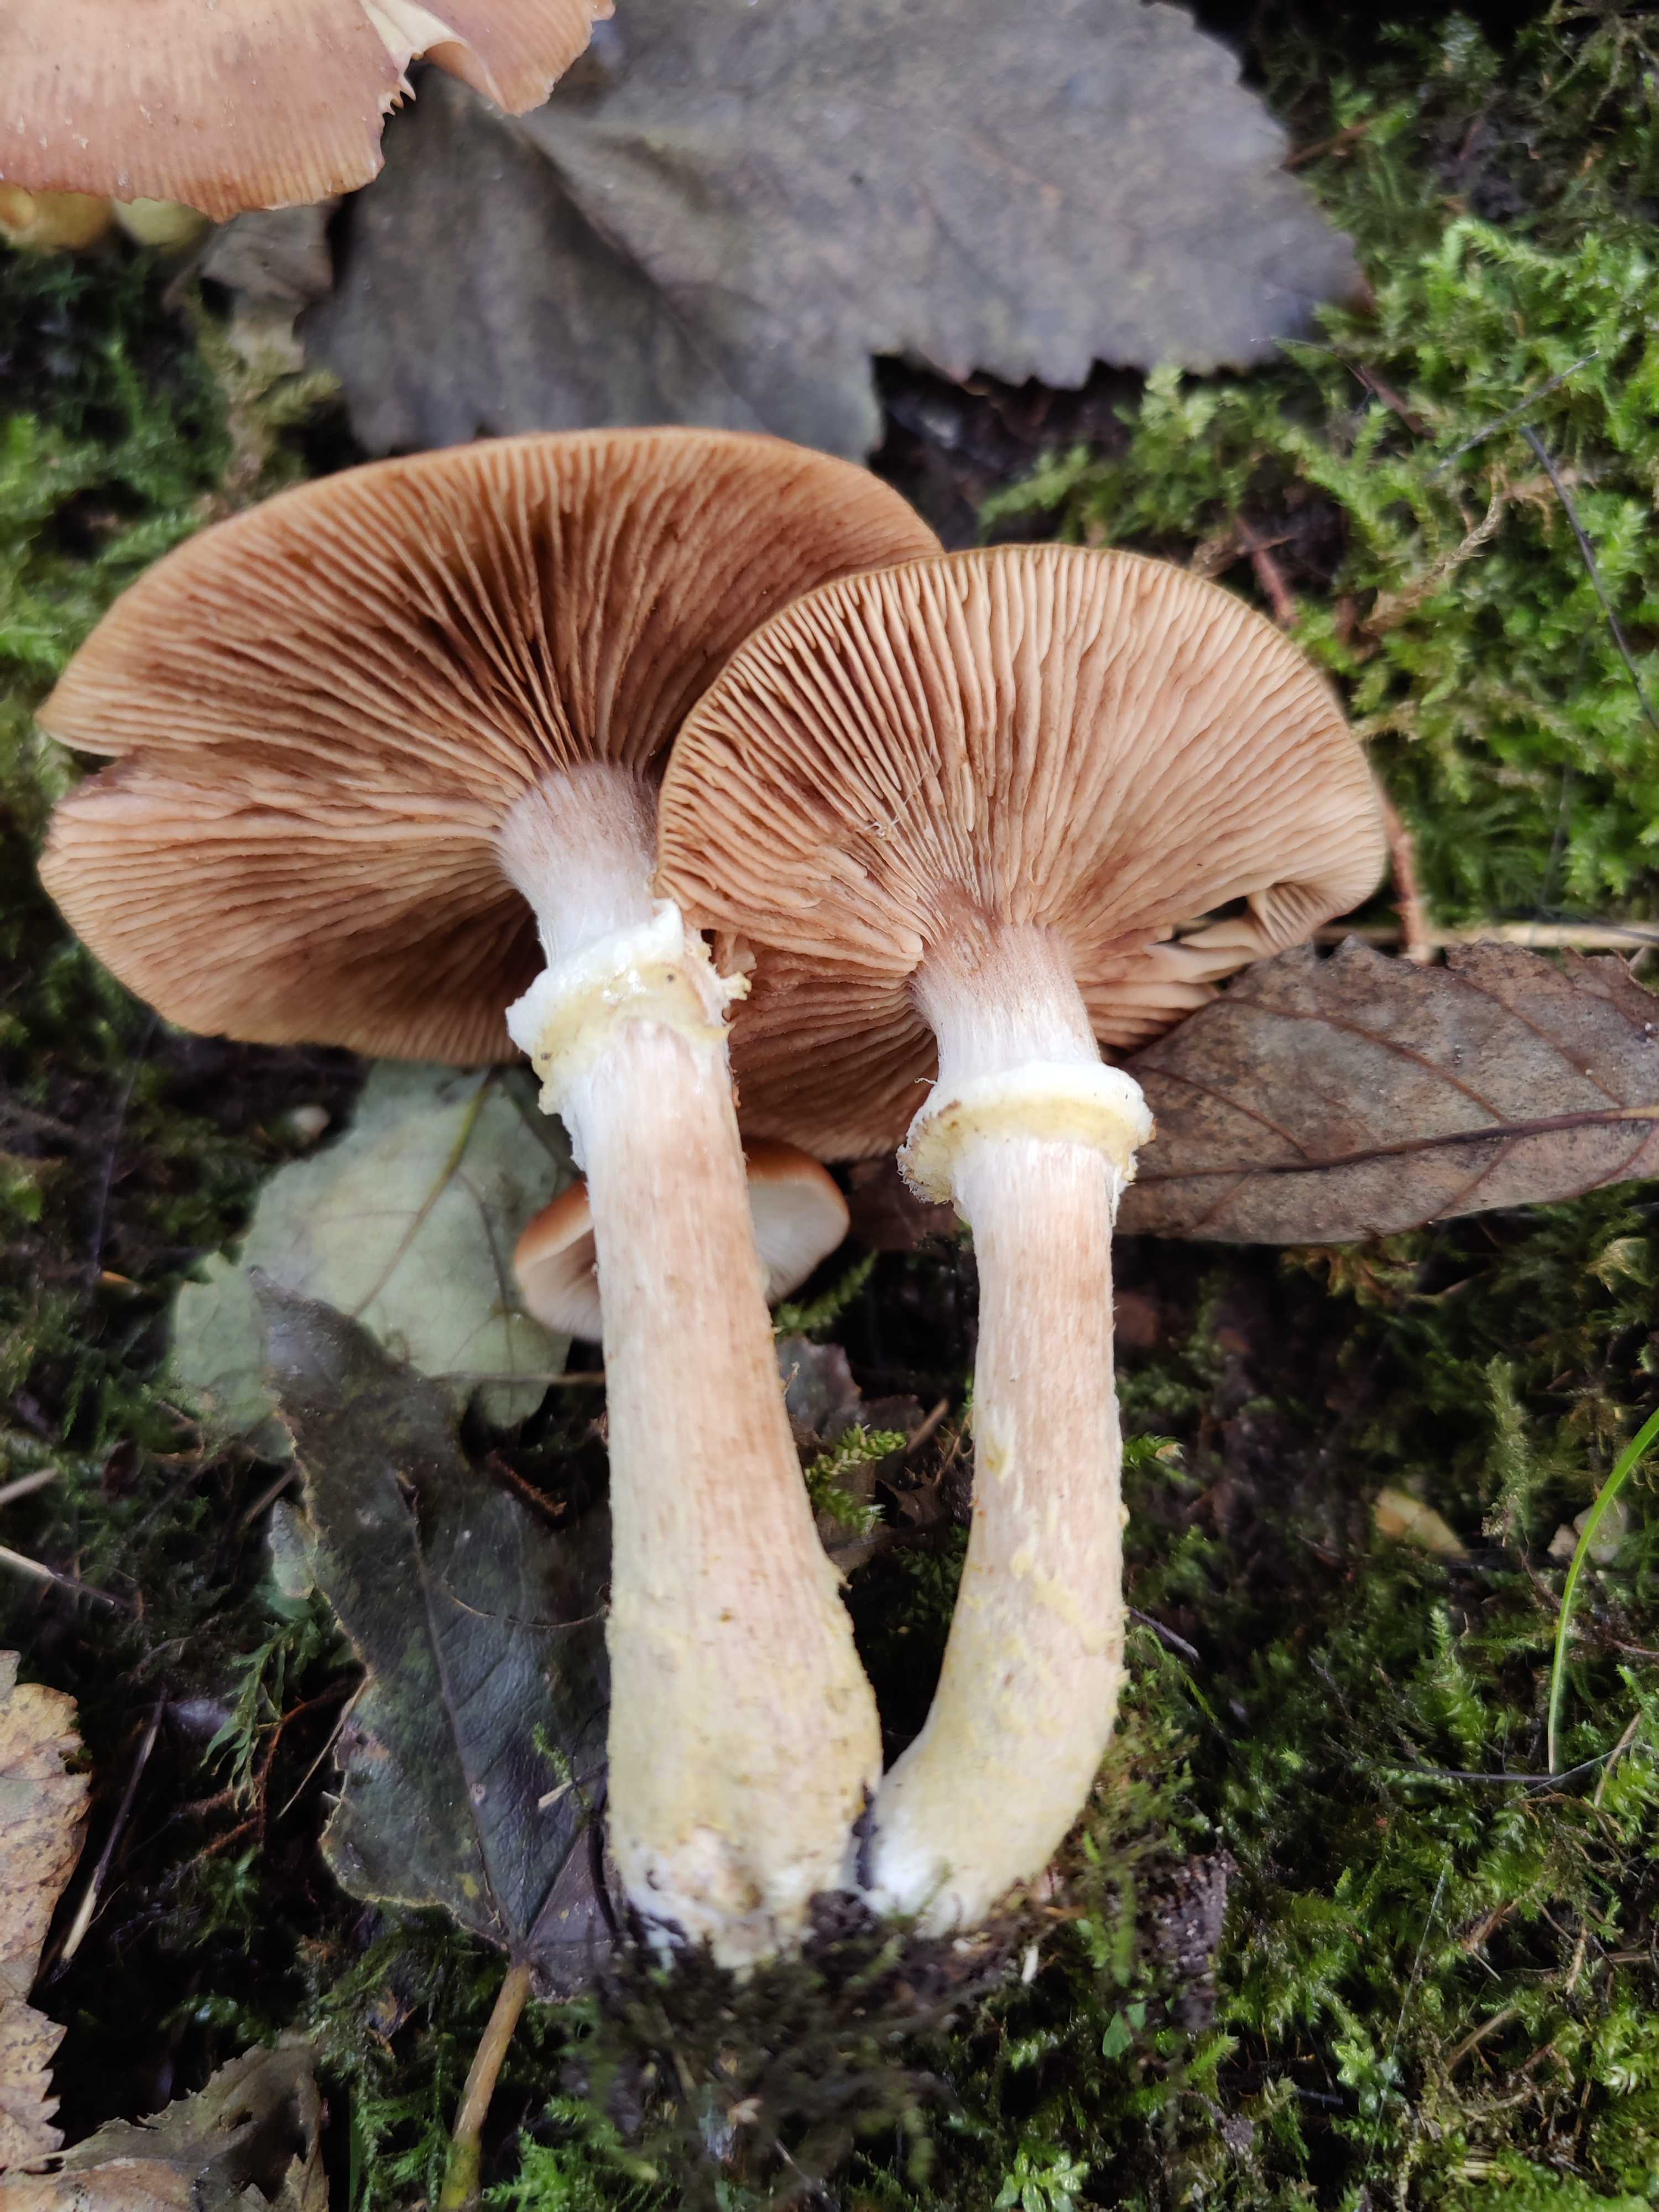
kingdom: Fungi
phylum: Basidiomycota
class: Agaricomycetes
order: Agaricales
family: Physalacriaceae
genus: Armillaria
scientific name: Armillaria lutea
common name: køllestokket honningsvamp
